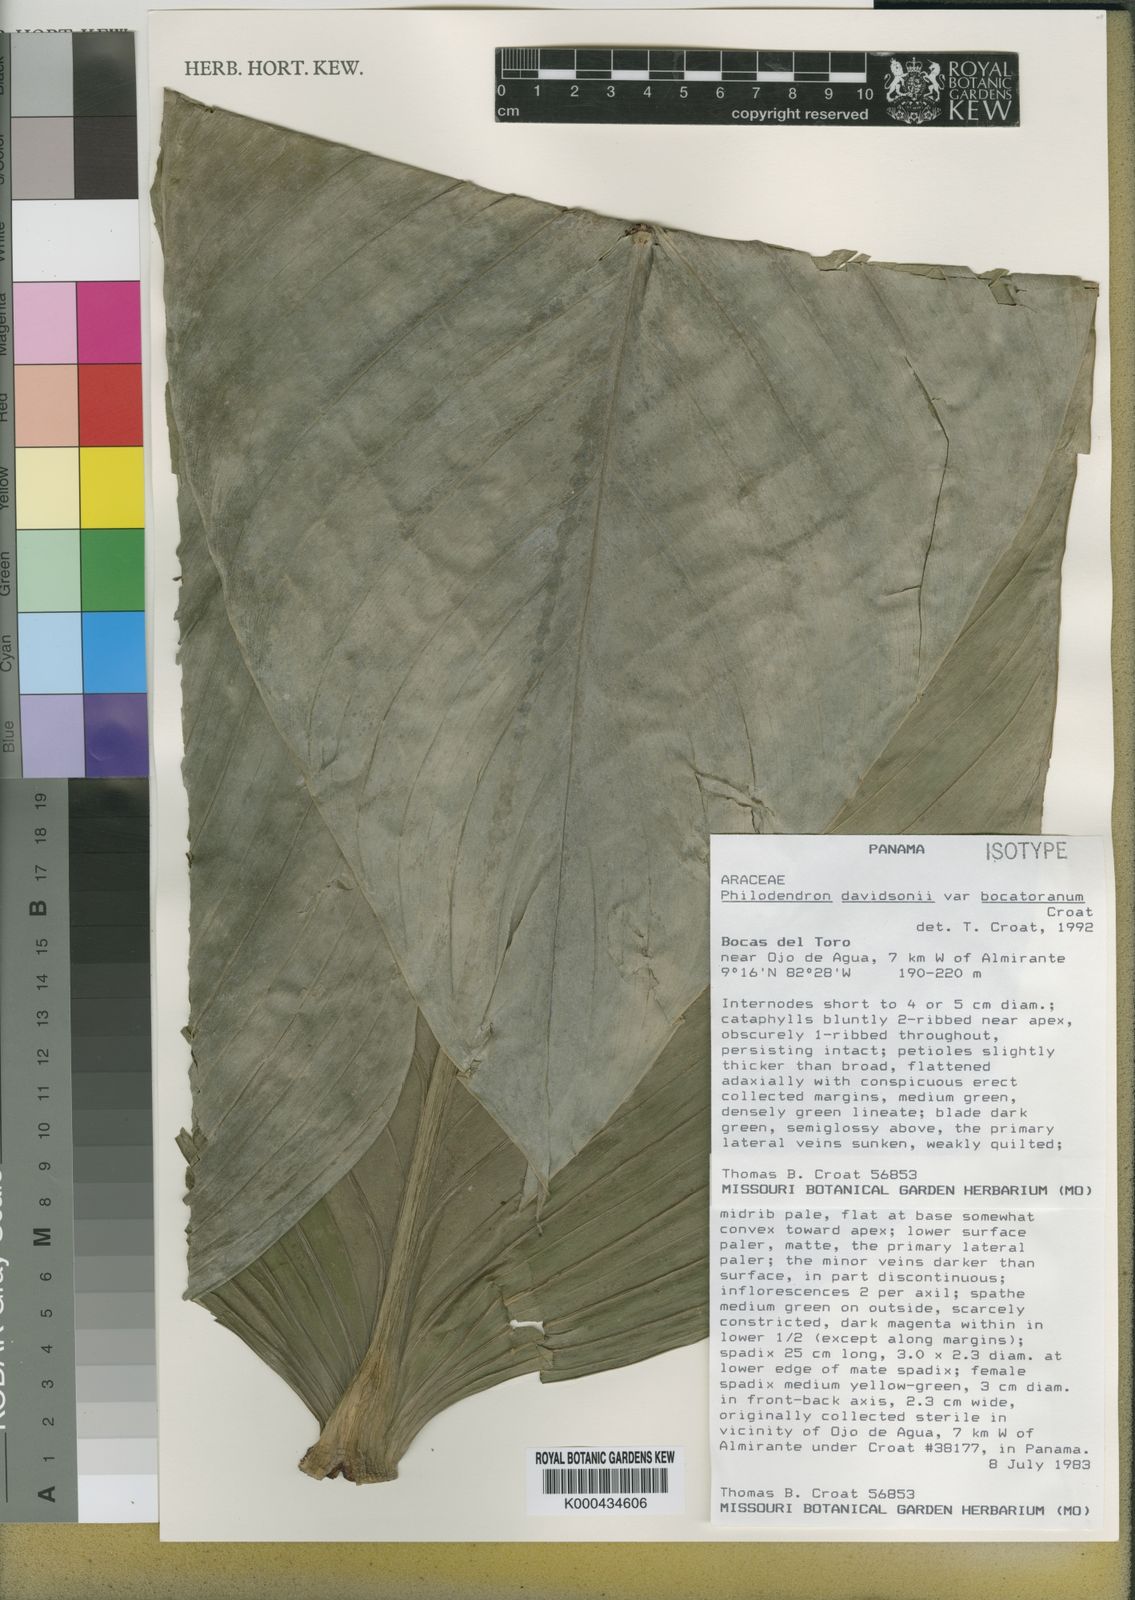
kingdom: Plantae
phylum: Tracheophyta
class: Liliopsida
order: Alismatales
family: Araceae
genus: Philodendron
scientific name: Philodendron davidsonii
